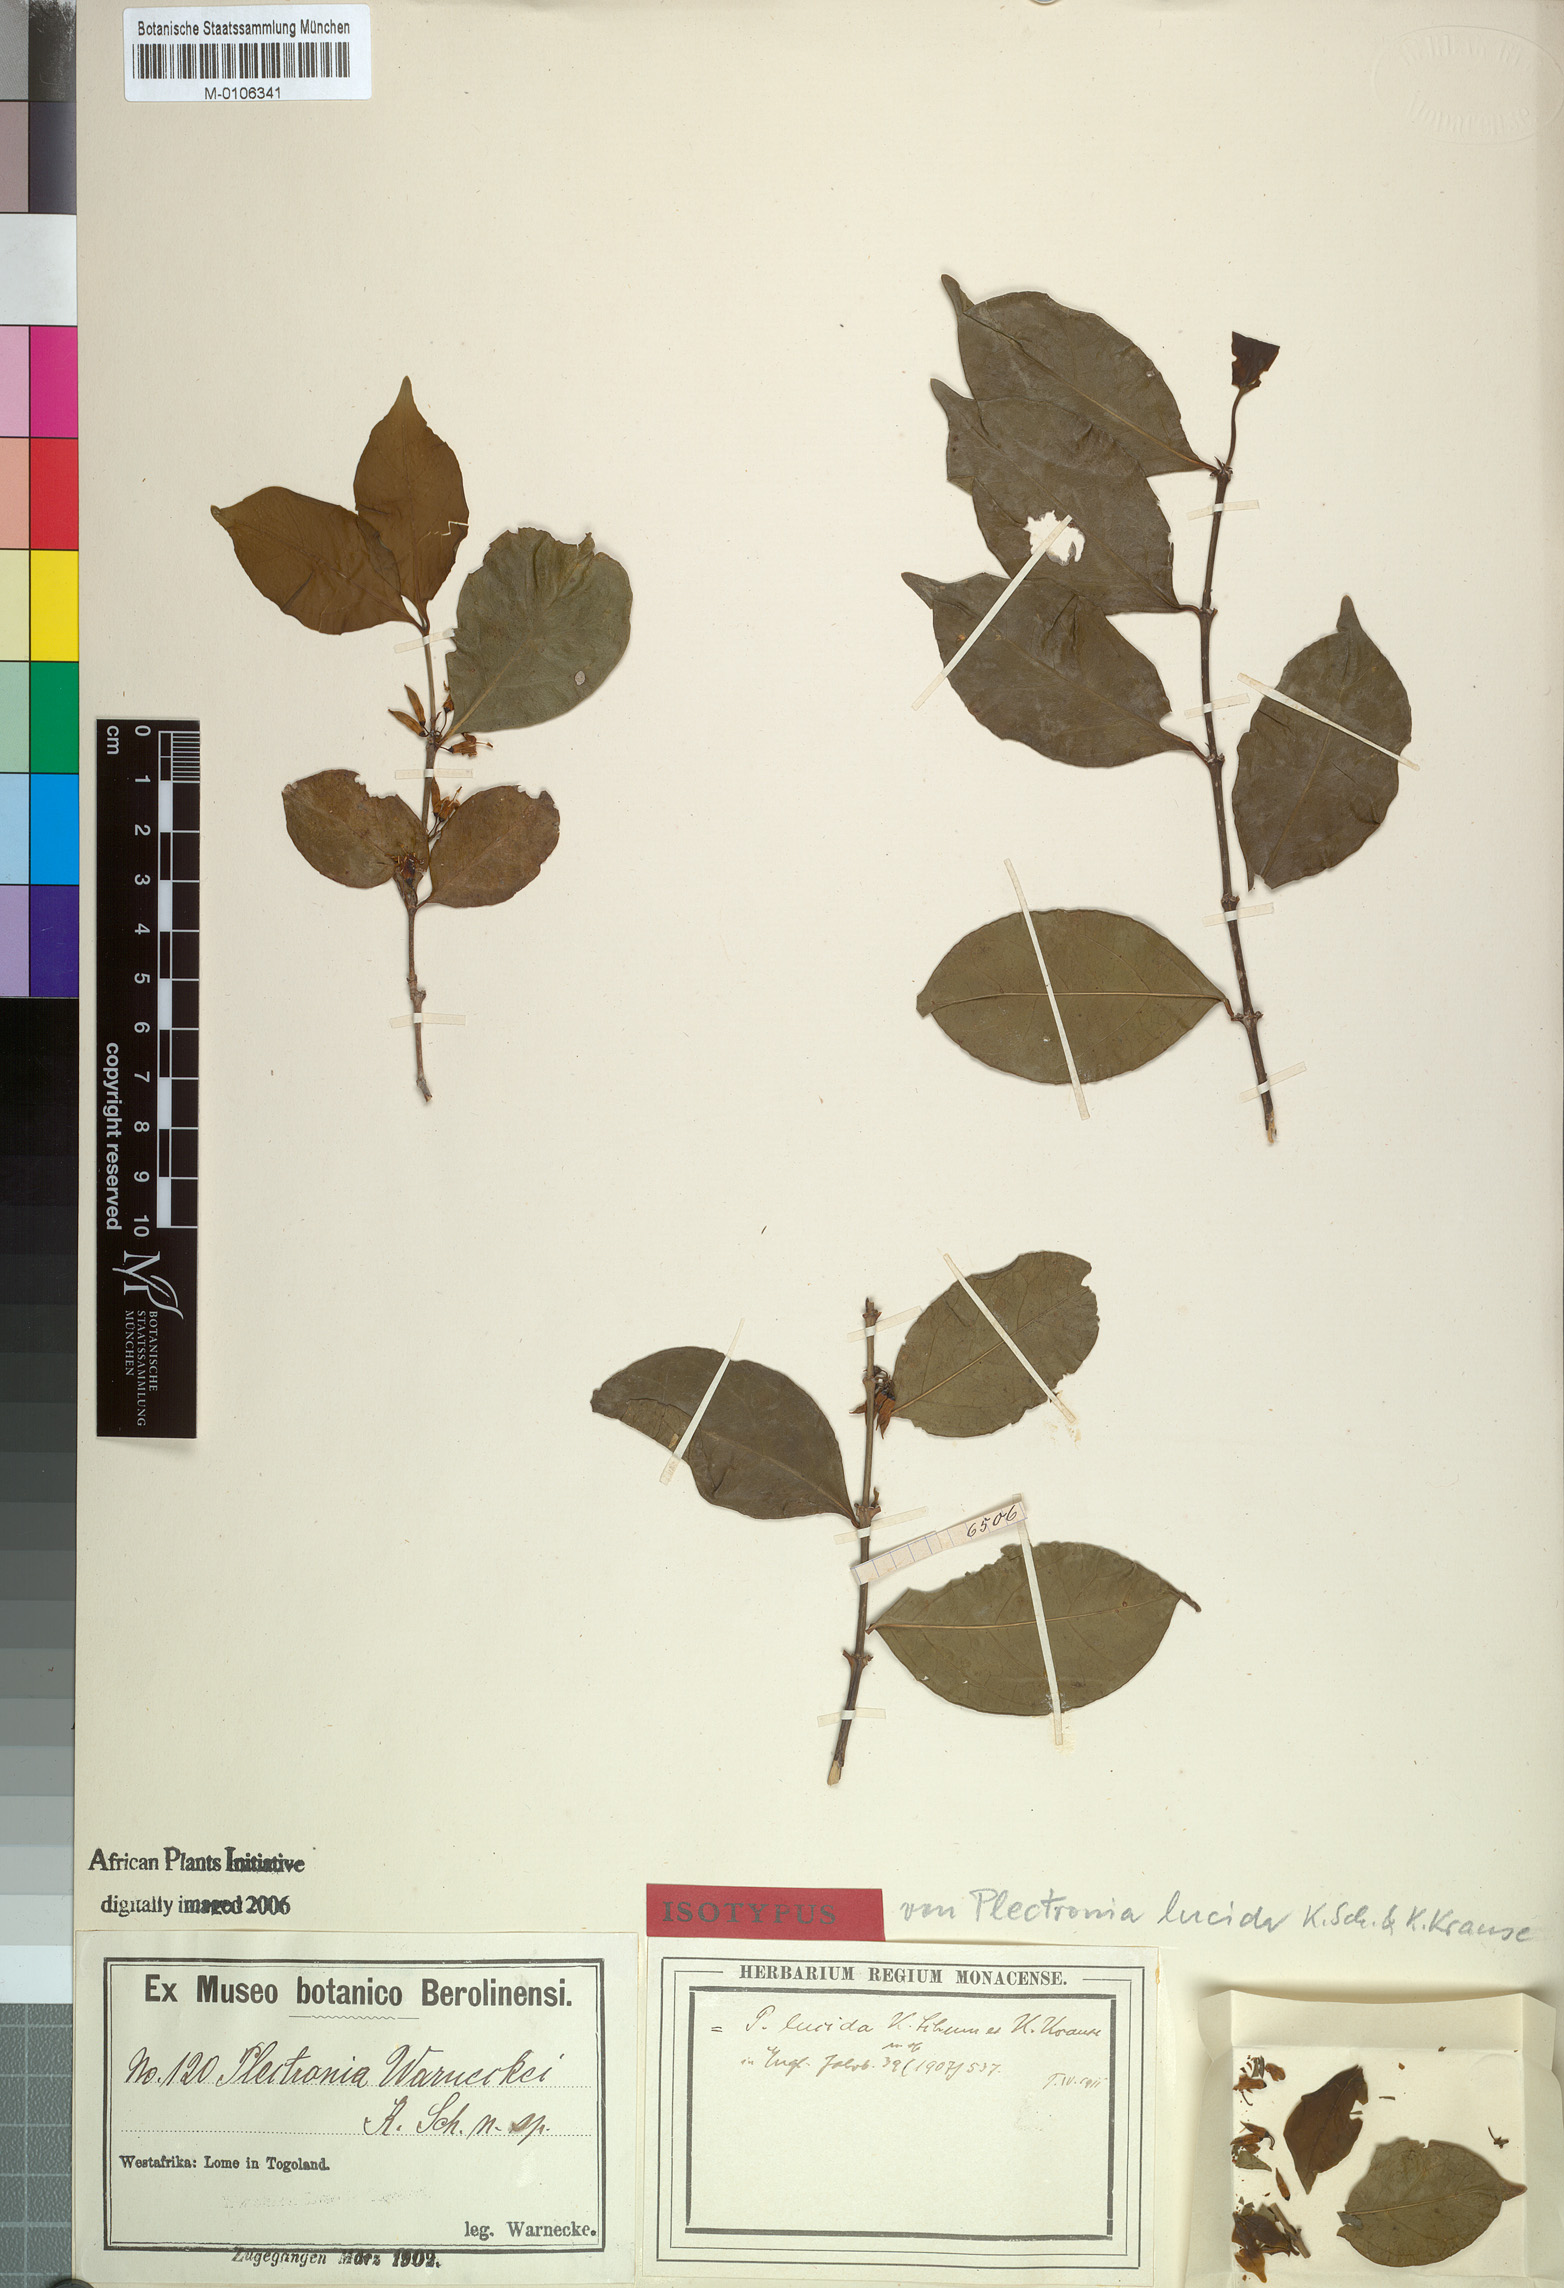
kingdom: Plantae
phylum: Tracheophyta
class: Magnoliopsida
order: Gentianales
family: Rubiaceae
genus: Psydrax
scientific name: Psydrax lucidulus
